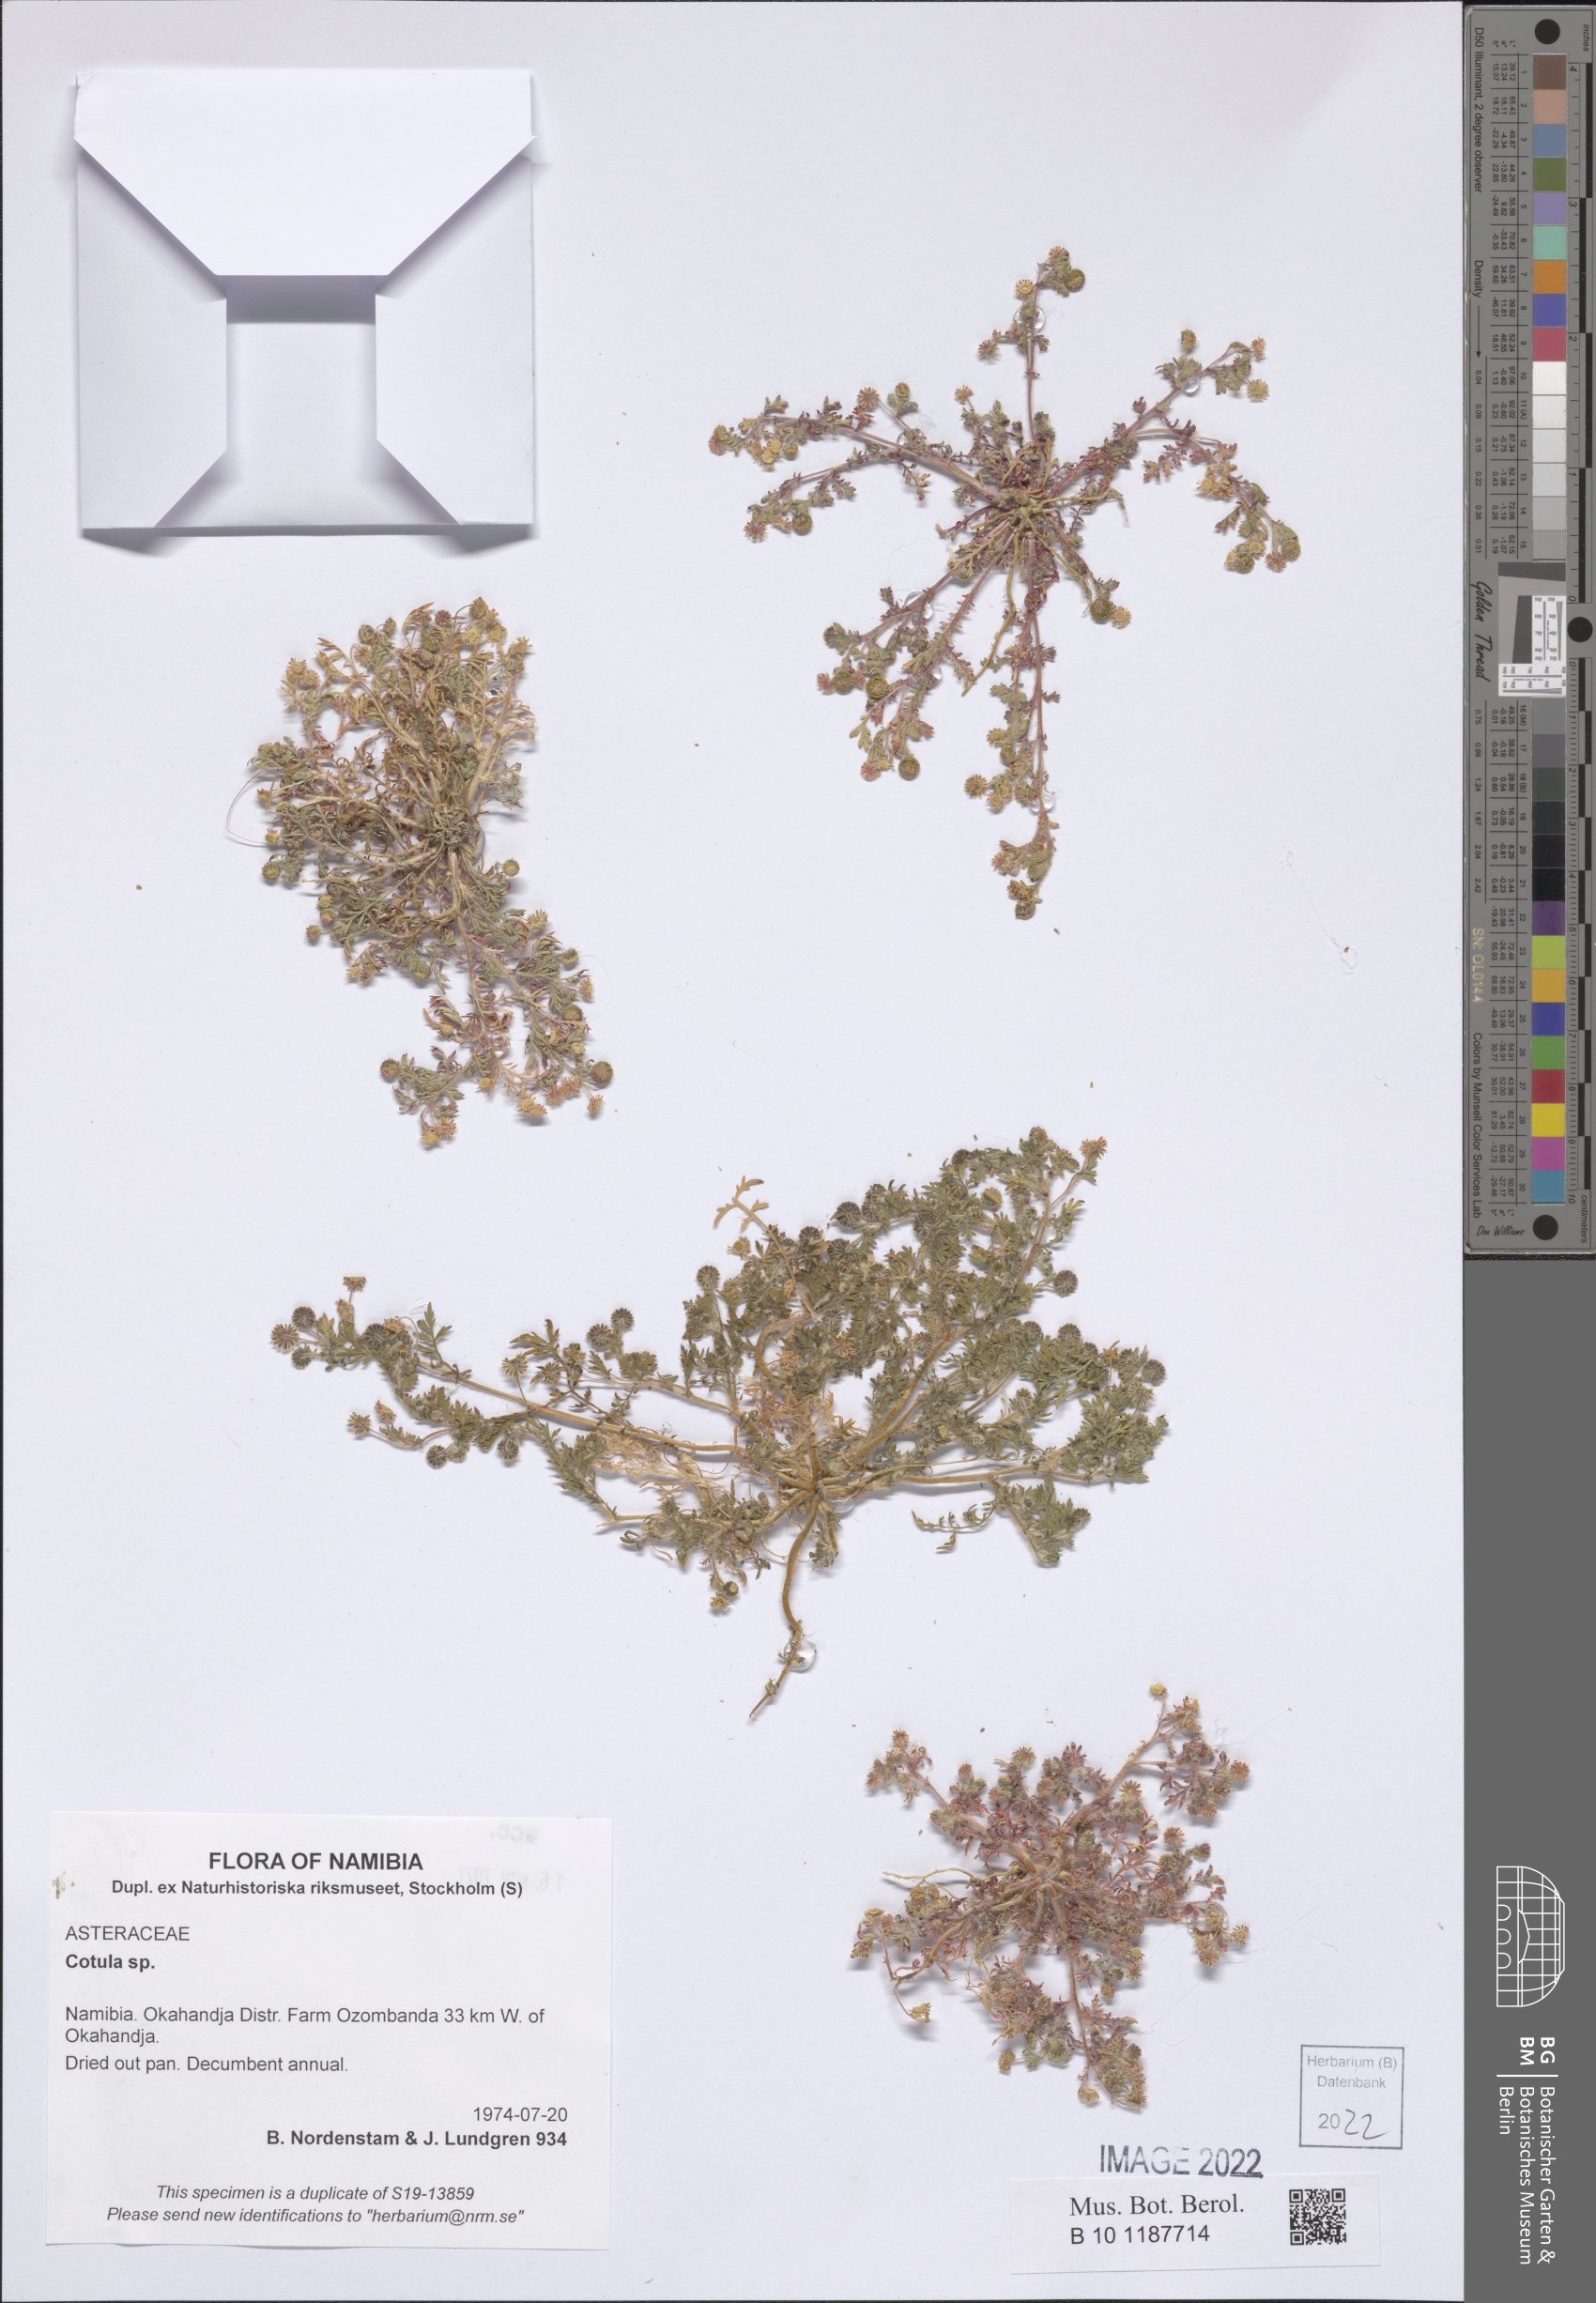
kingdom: Plantae
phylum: Tracheophyta
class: Magnoliopsida
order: Asterales
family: Asteraceae
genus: Cotula
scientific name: Cotula
